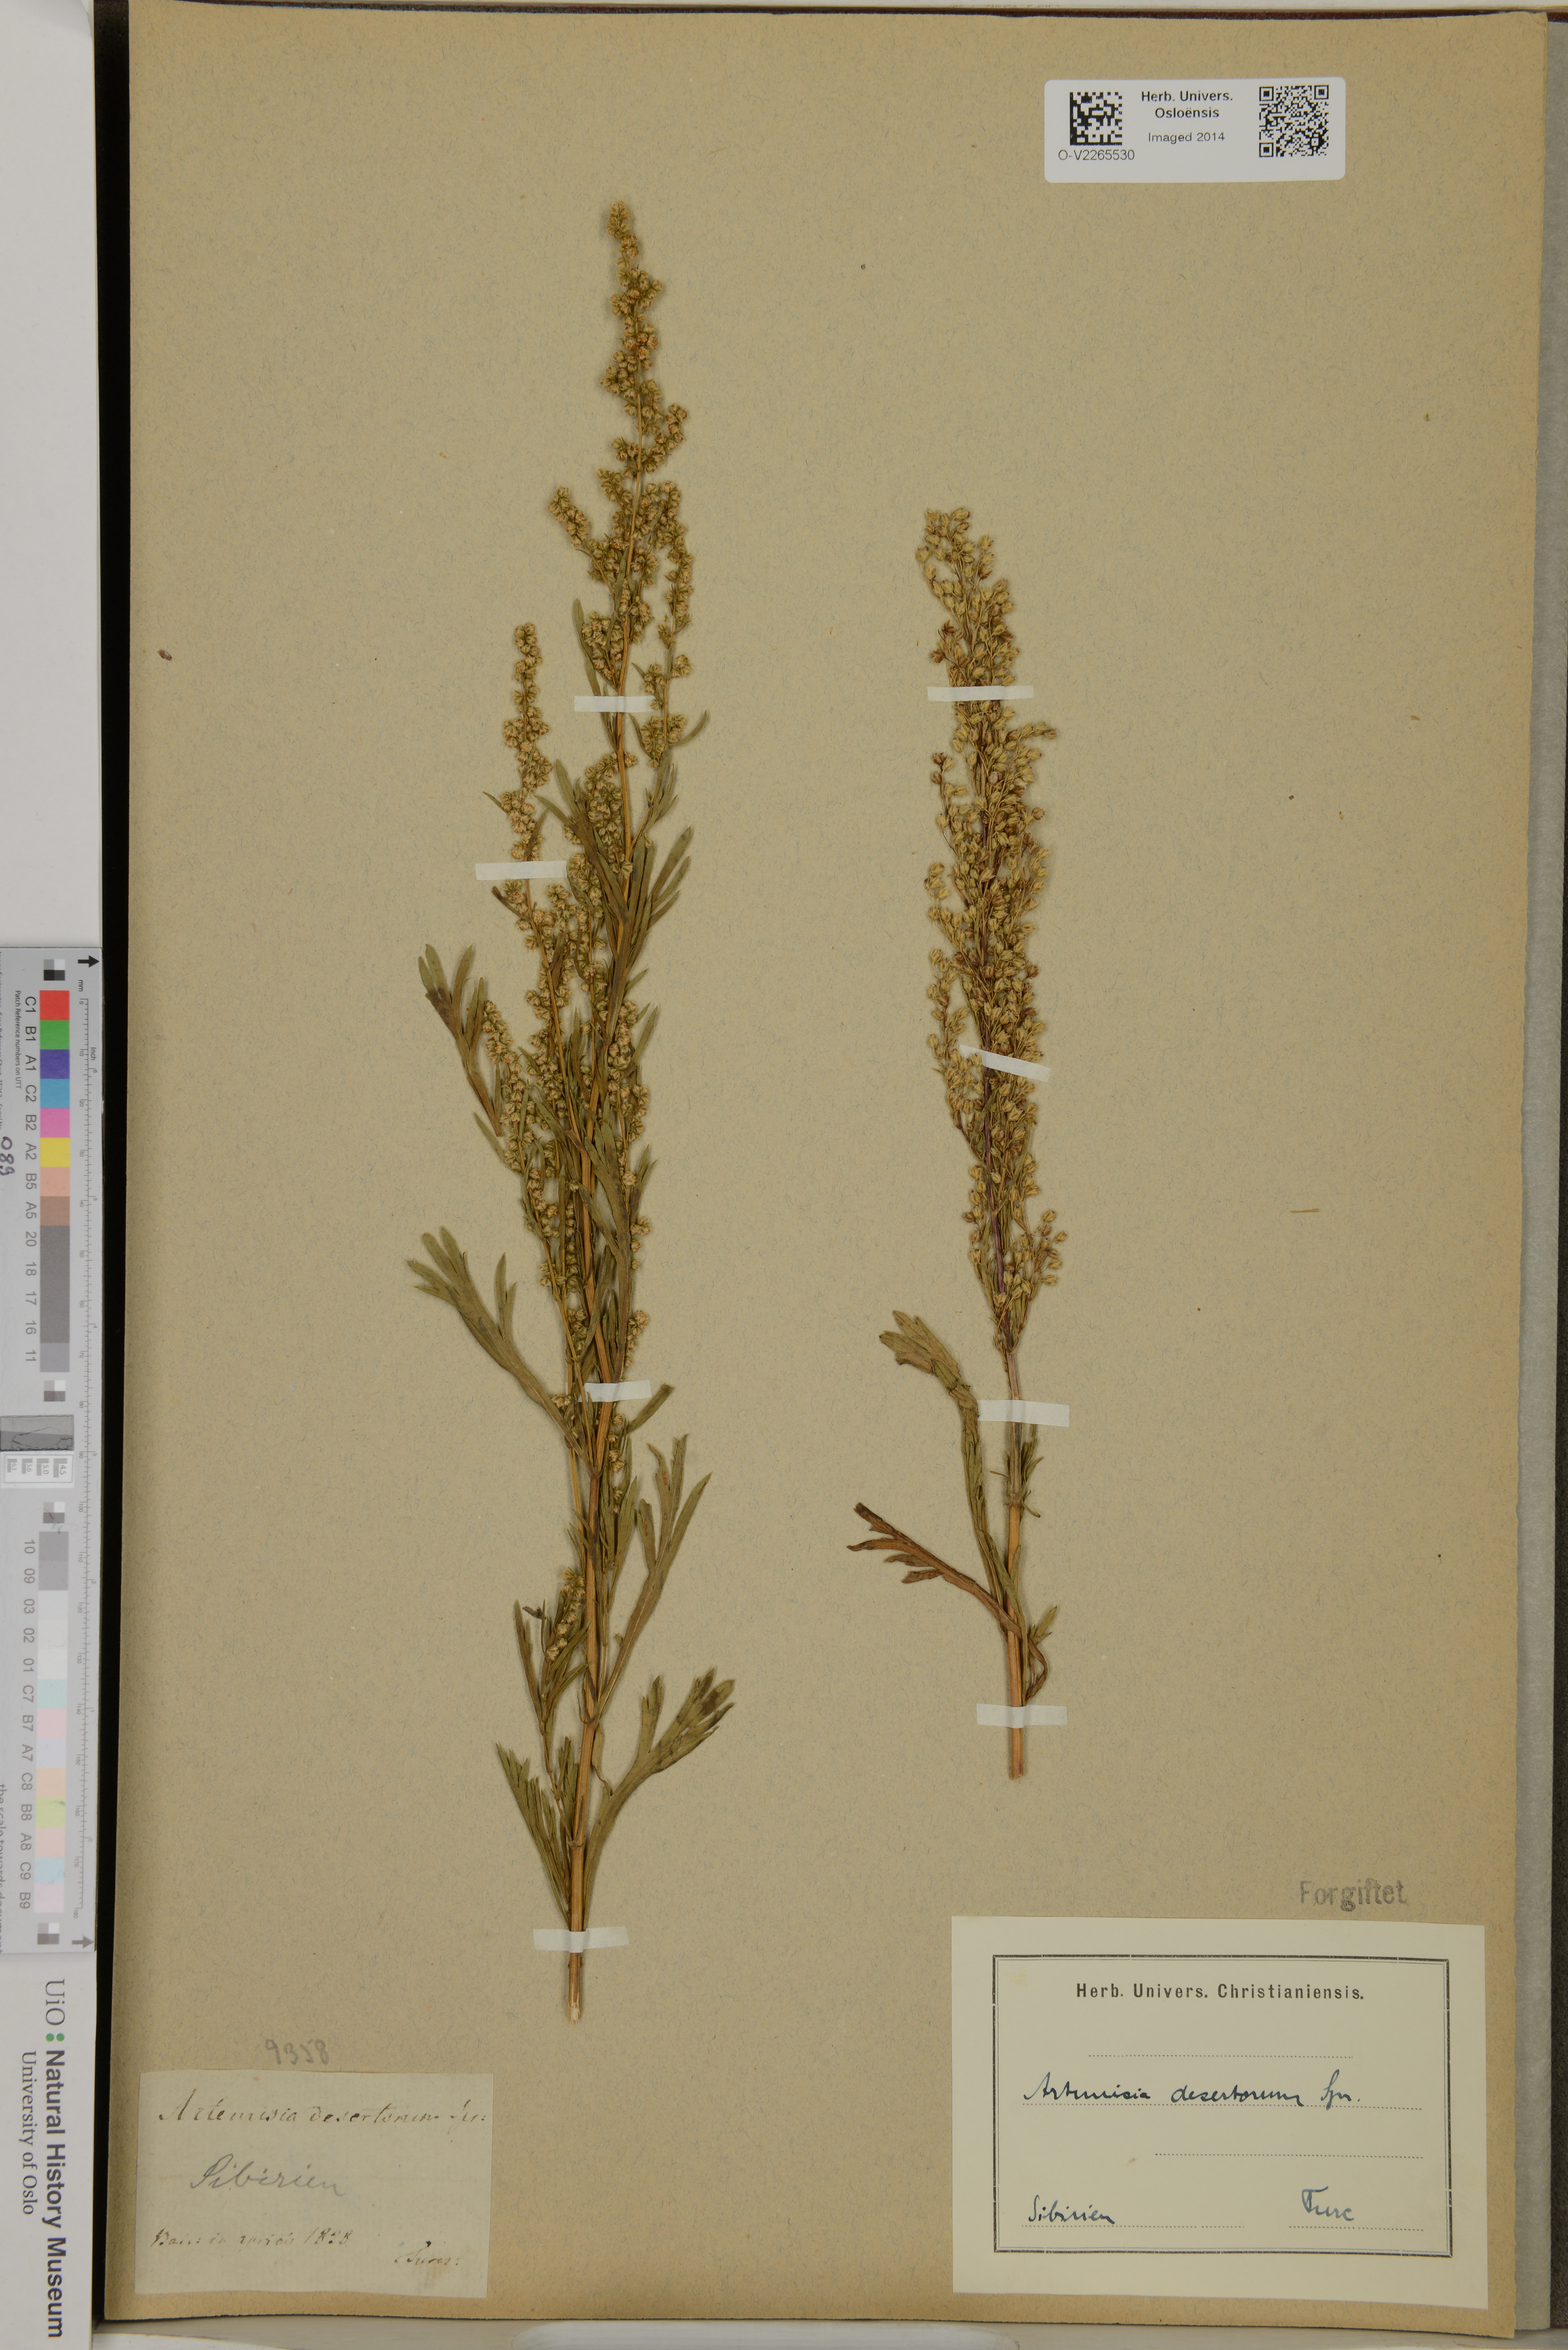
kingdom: Plantae
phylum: Tracheophyta
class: Magnoliopsida
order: Asterales
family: Asteraceae
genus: Artemisia
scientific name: Artemisia desertorum
